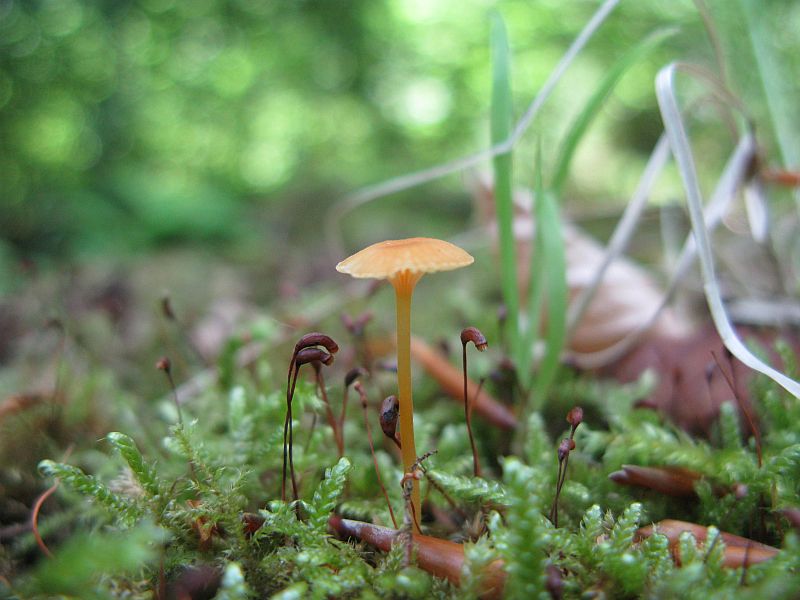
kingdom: Fungi
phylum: Basidiomycota
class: Agaricomycetes
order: Hymenochaetales
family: Rickenellaceae
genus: Rickenella
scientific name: Rickenella fibula
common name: orange mosnavlehat
